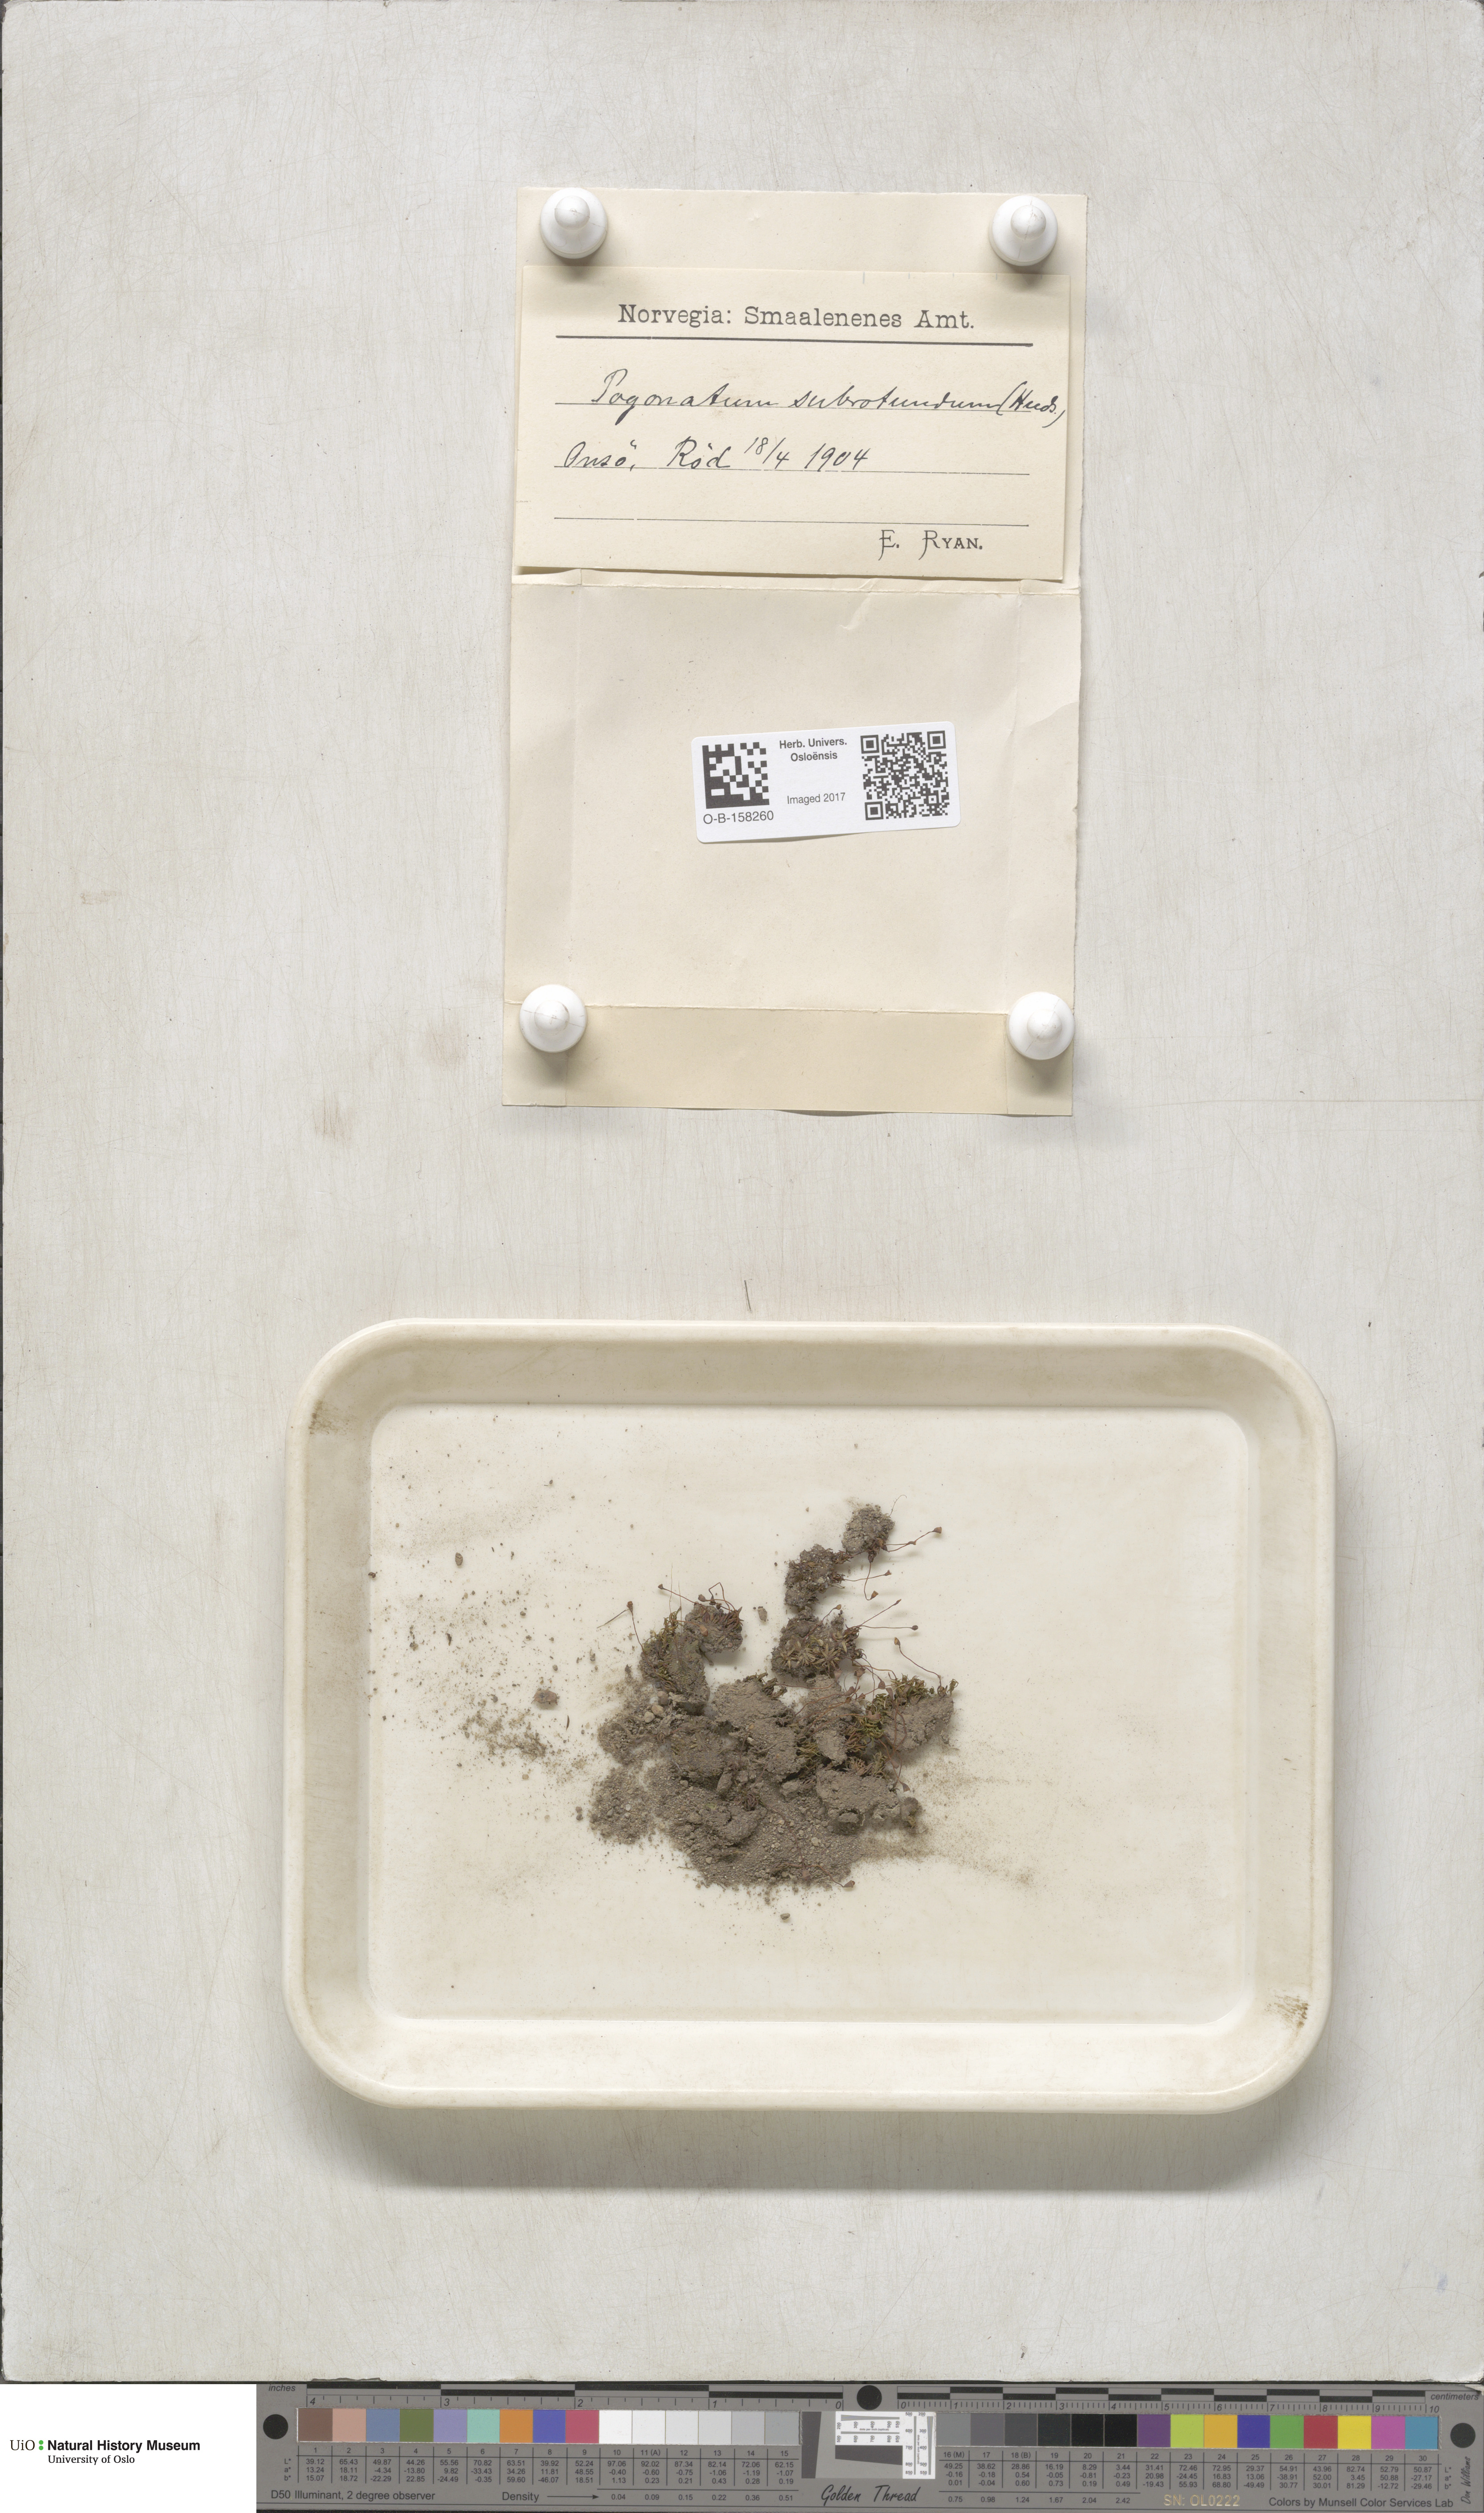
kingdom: Plantae
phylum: Bryophyta
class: Polytrichopsida
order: Polytrichales
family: Polytrichaceae
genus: Pogonatum
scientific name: Pogonatum nanum
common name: Dwarf haircap
